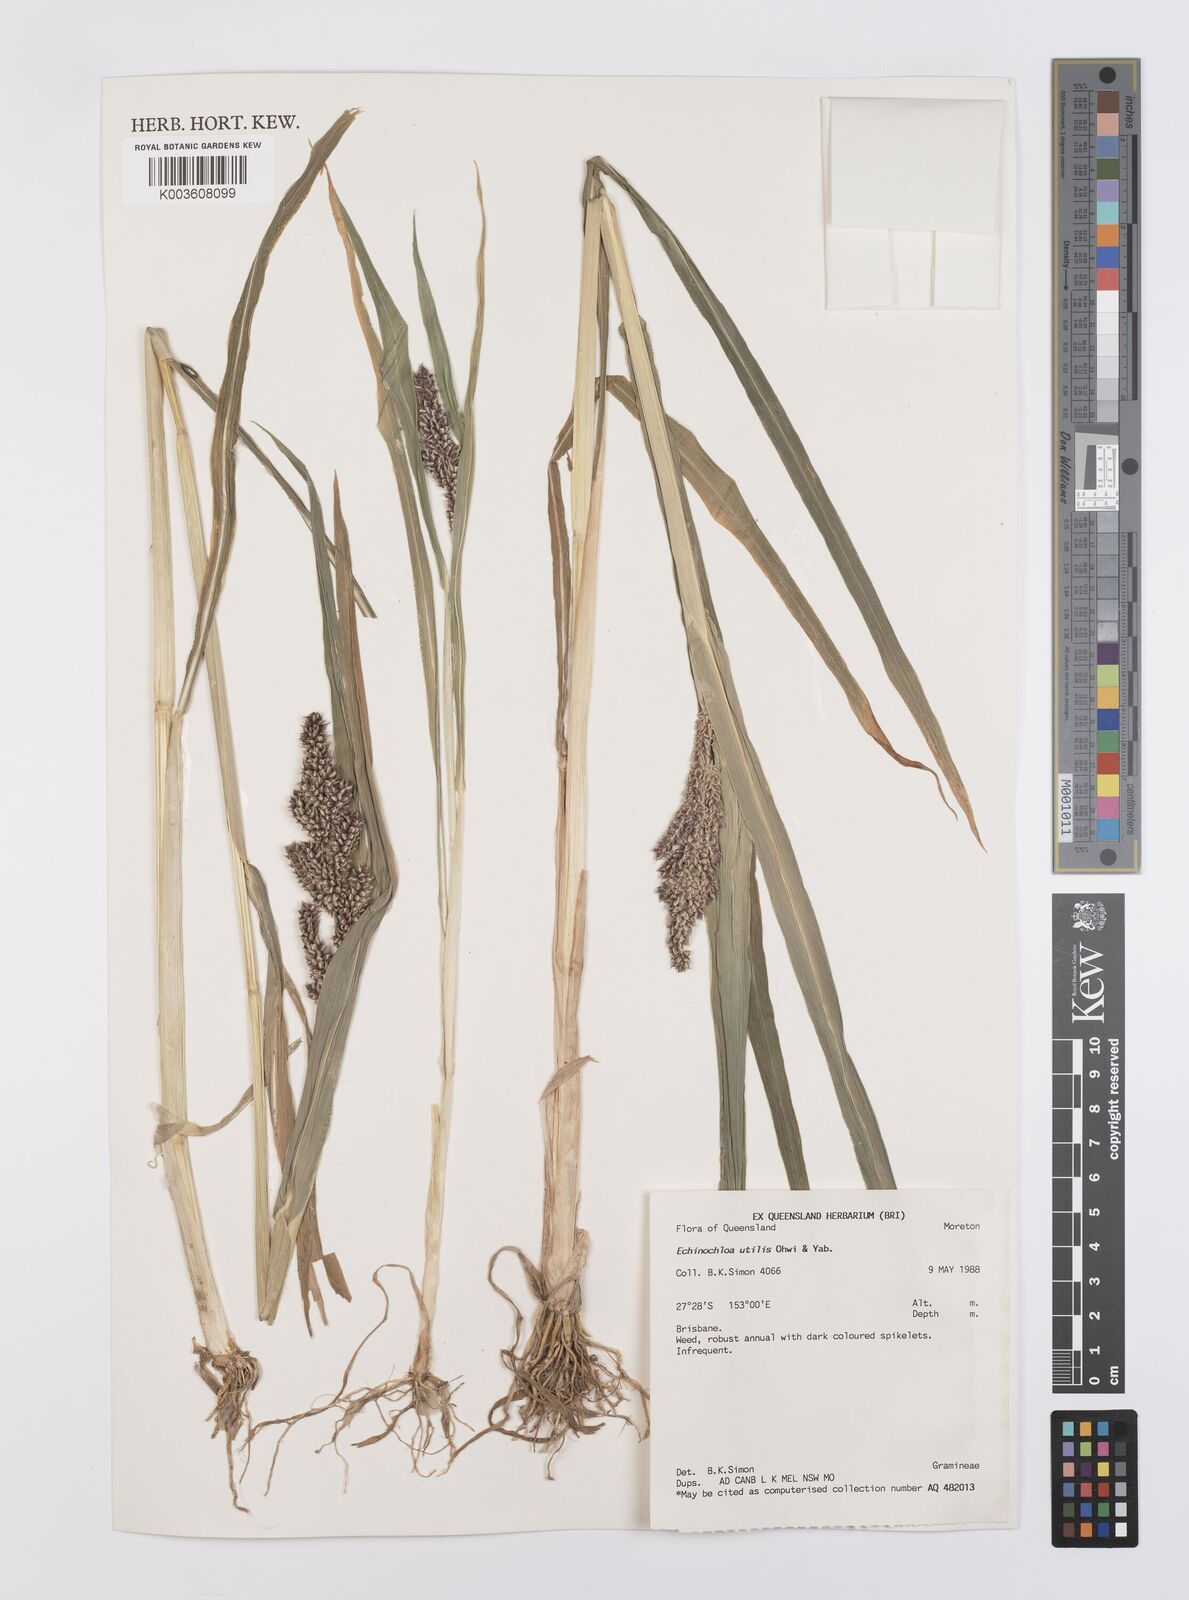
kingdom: Plantae
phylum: Tracheophyta
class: Liliopsida
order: Poales
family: Poaceae
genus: Echinochloa
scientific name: Echinochloa crus-galli
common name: Cockspur
